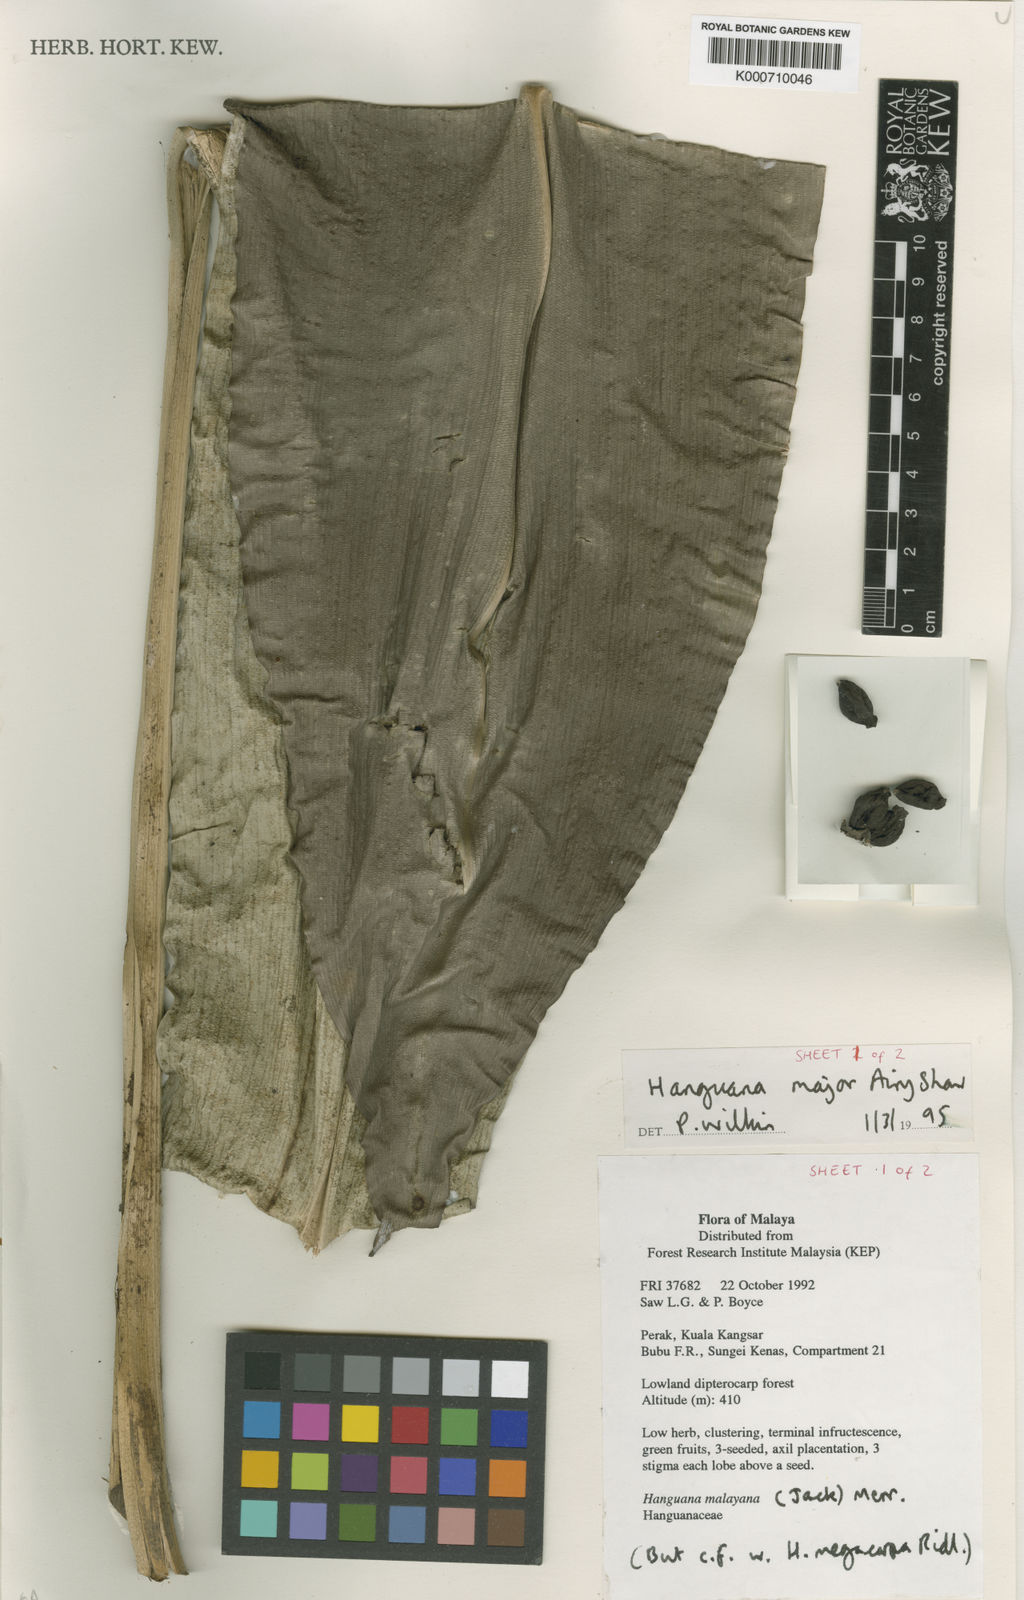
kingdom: Plantae
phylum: Tracheophyta
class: Liliopsida
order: Commelinales
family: Hanguanaceae
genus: Hanguana
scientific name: Hanguana major
